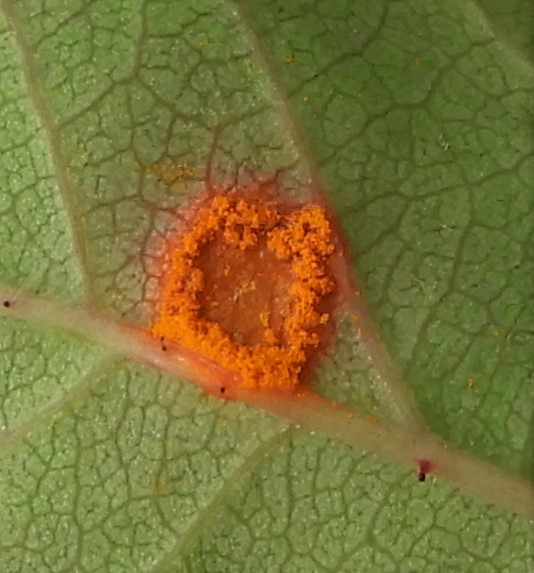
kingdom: Fungi
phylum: Basidiomycota
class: Pucciniomycetes
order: Pucciniales
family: Phragmidiaceae
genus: Phragmidium
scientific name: Phragmidium
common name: flercellerust
